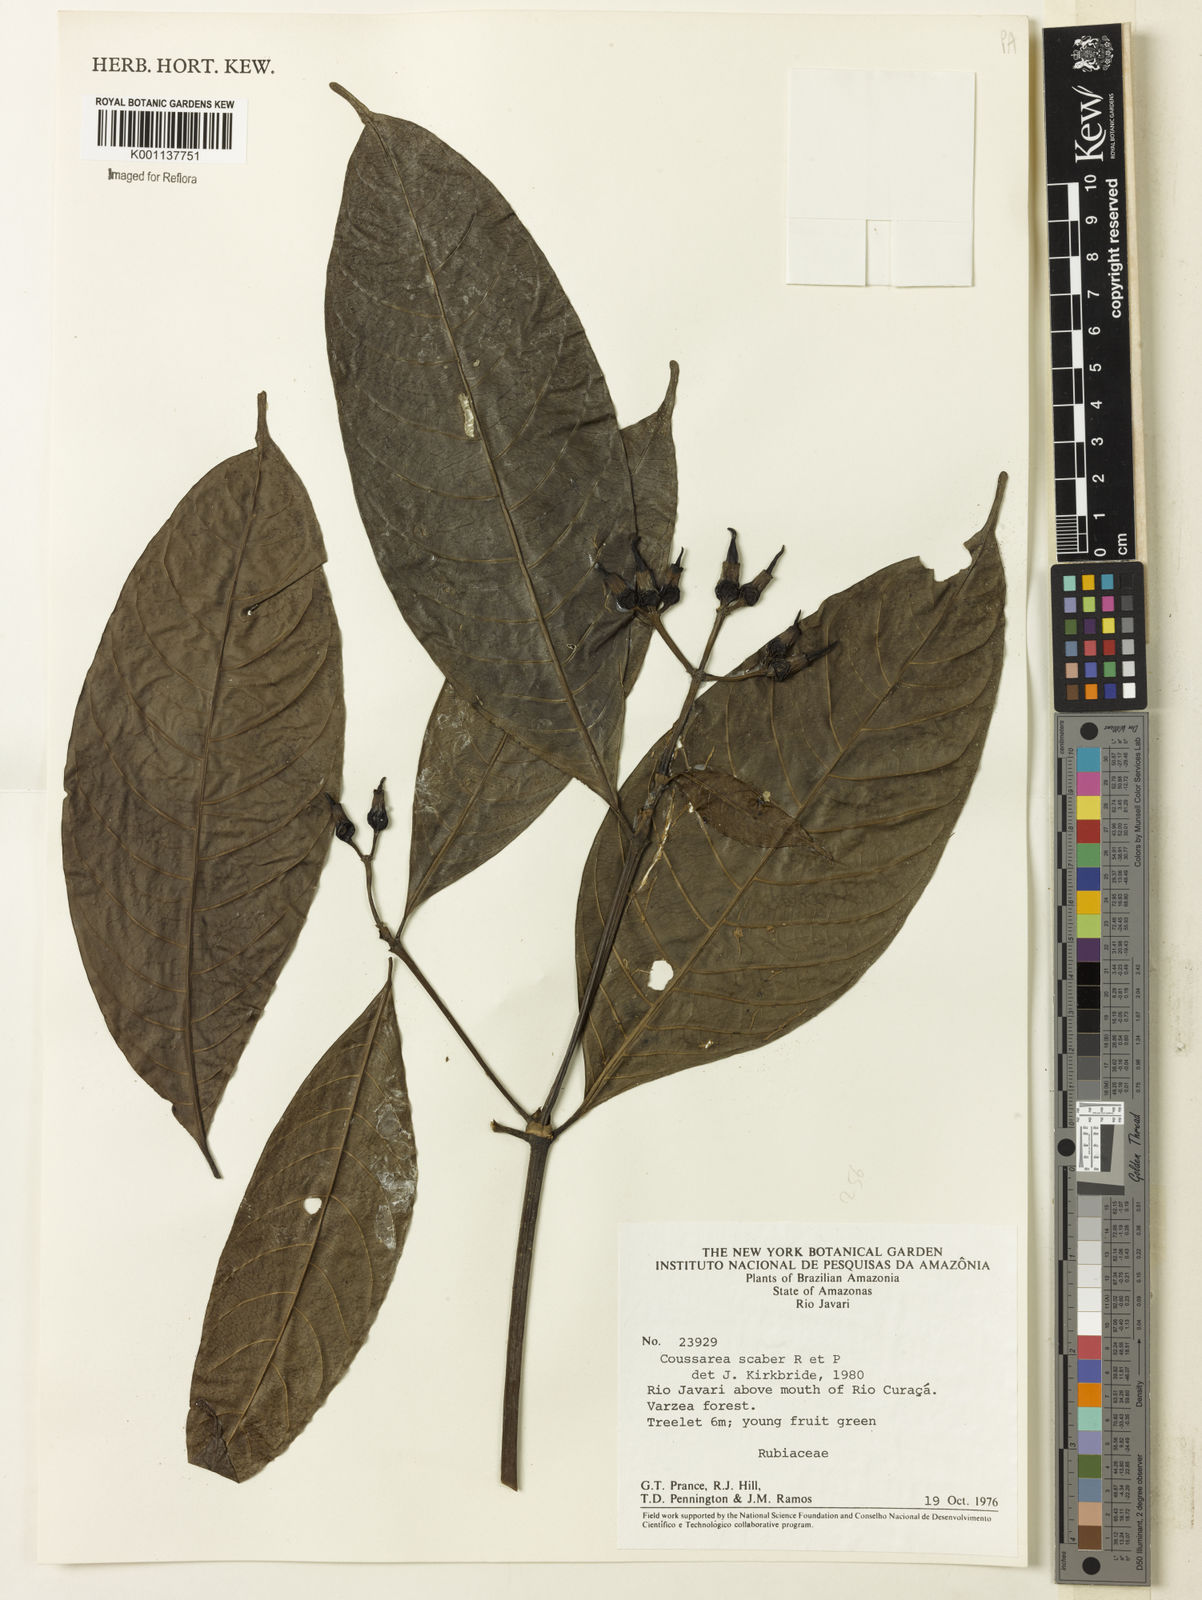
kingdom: Plantae
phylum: Tracheophyta
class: Magnoliopsida
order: Gentianales
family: Rubiaceae
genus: Coussarea
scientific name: Coussarea
